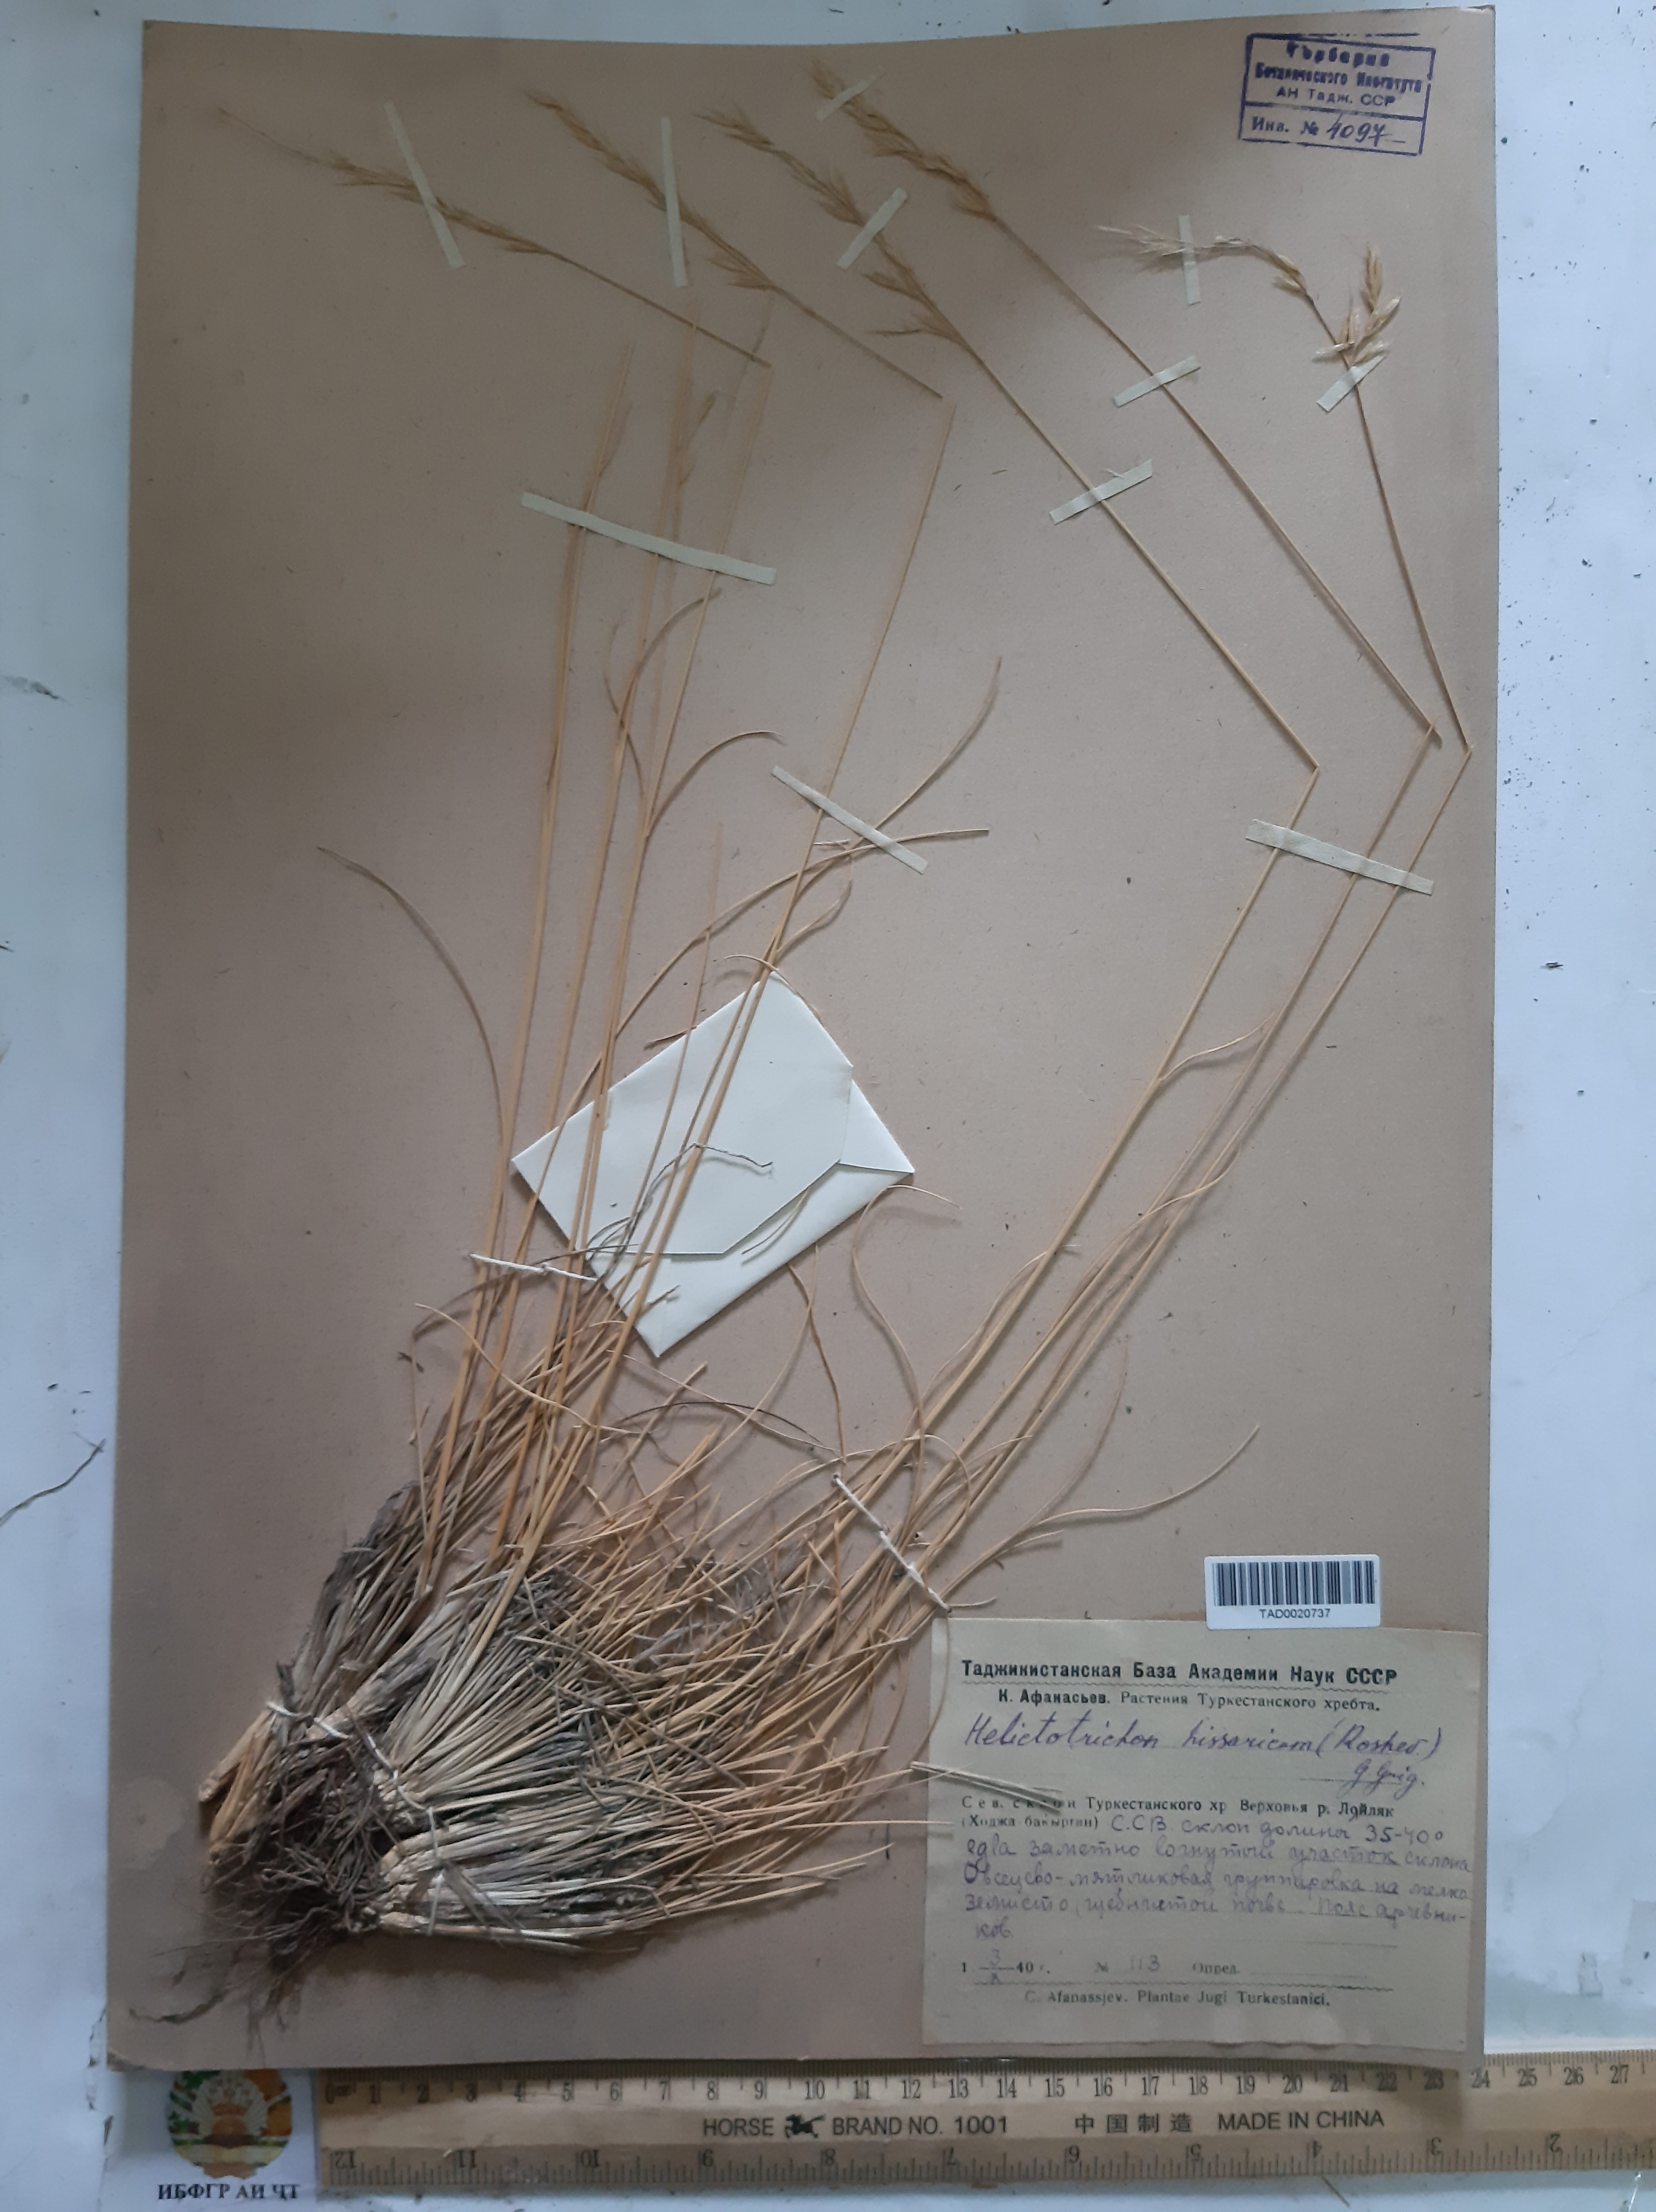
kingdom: Plantae
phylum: Tracheophyta
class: Liliopsida
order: Poales
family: Poaceae
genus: Helictotrichon
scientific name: Helictotrichon hissaricum
